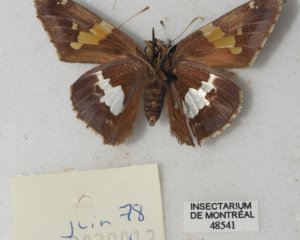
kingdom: Animalia
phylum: Arthropoda
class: Insecta
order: Lepidoptera
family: Hesperiidae
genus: Epargyreus
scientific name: Epargyreus clarus
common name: Silver-spotted Skipper
